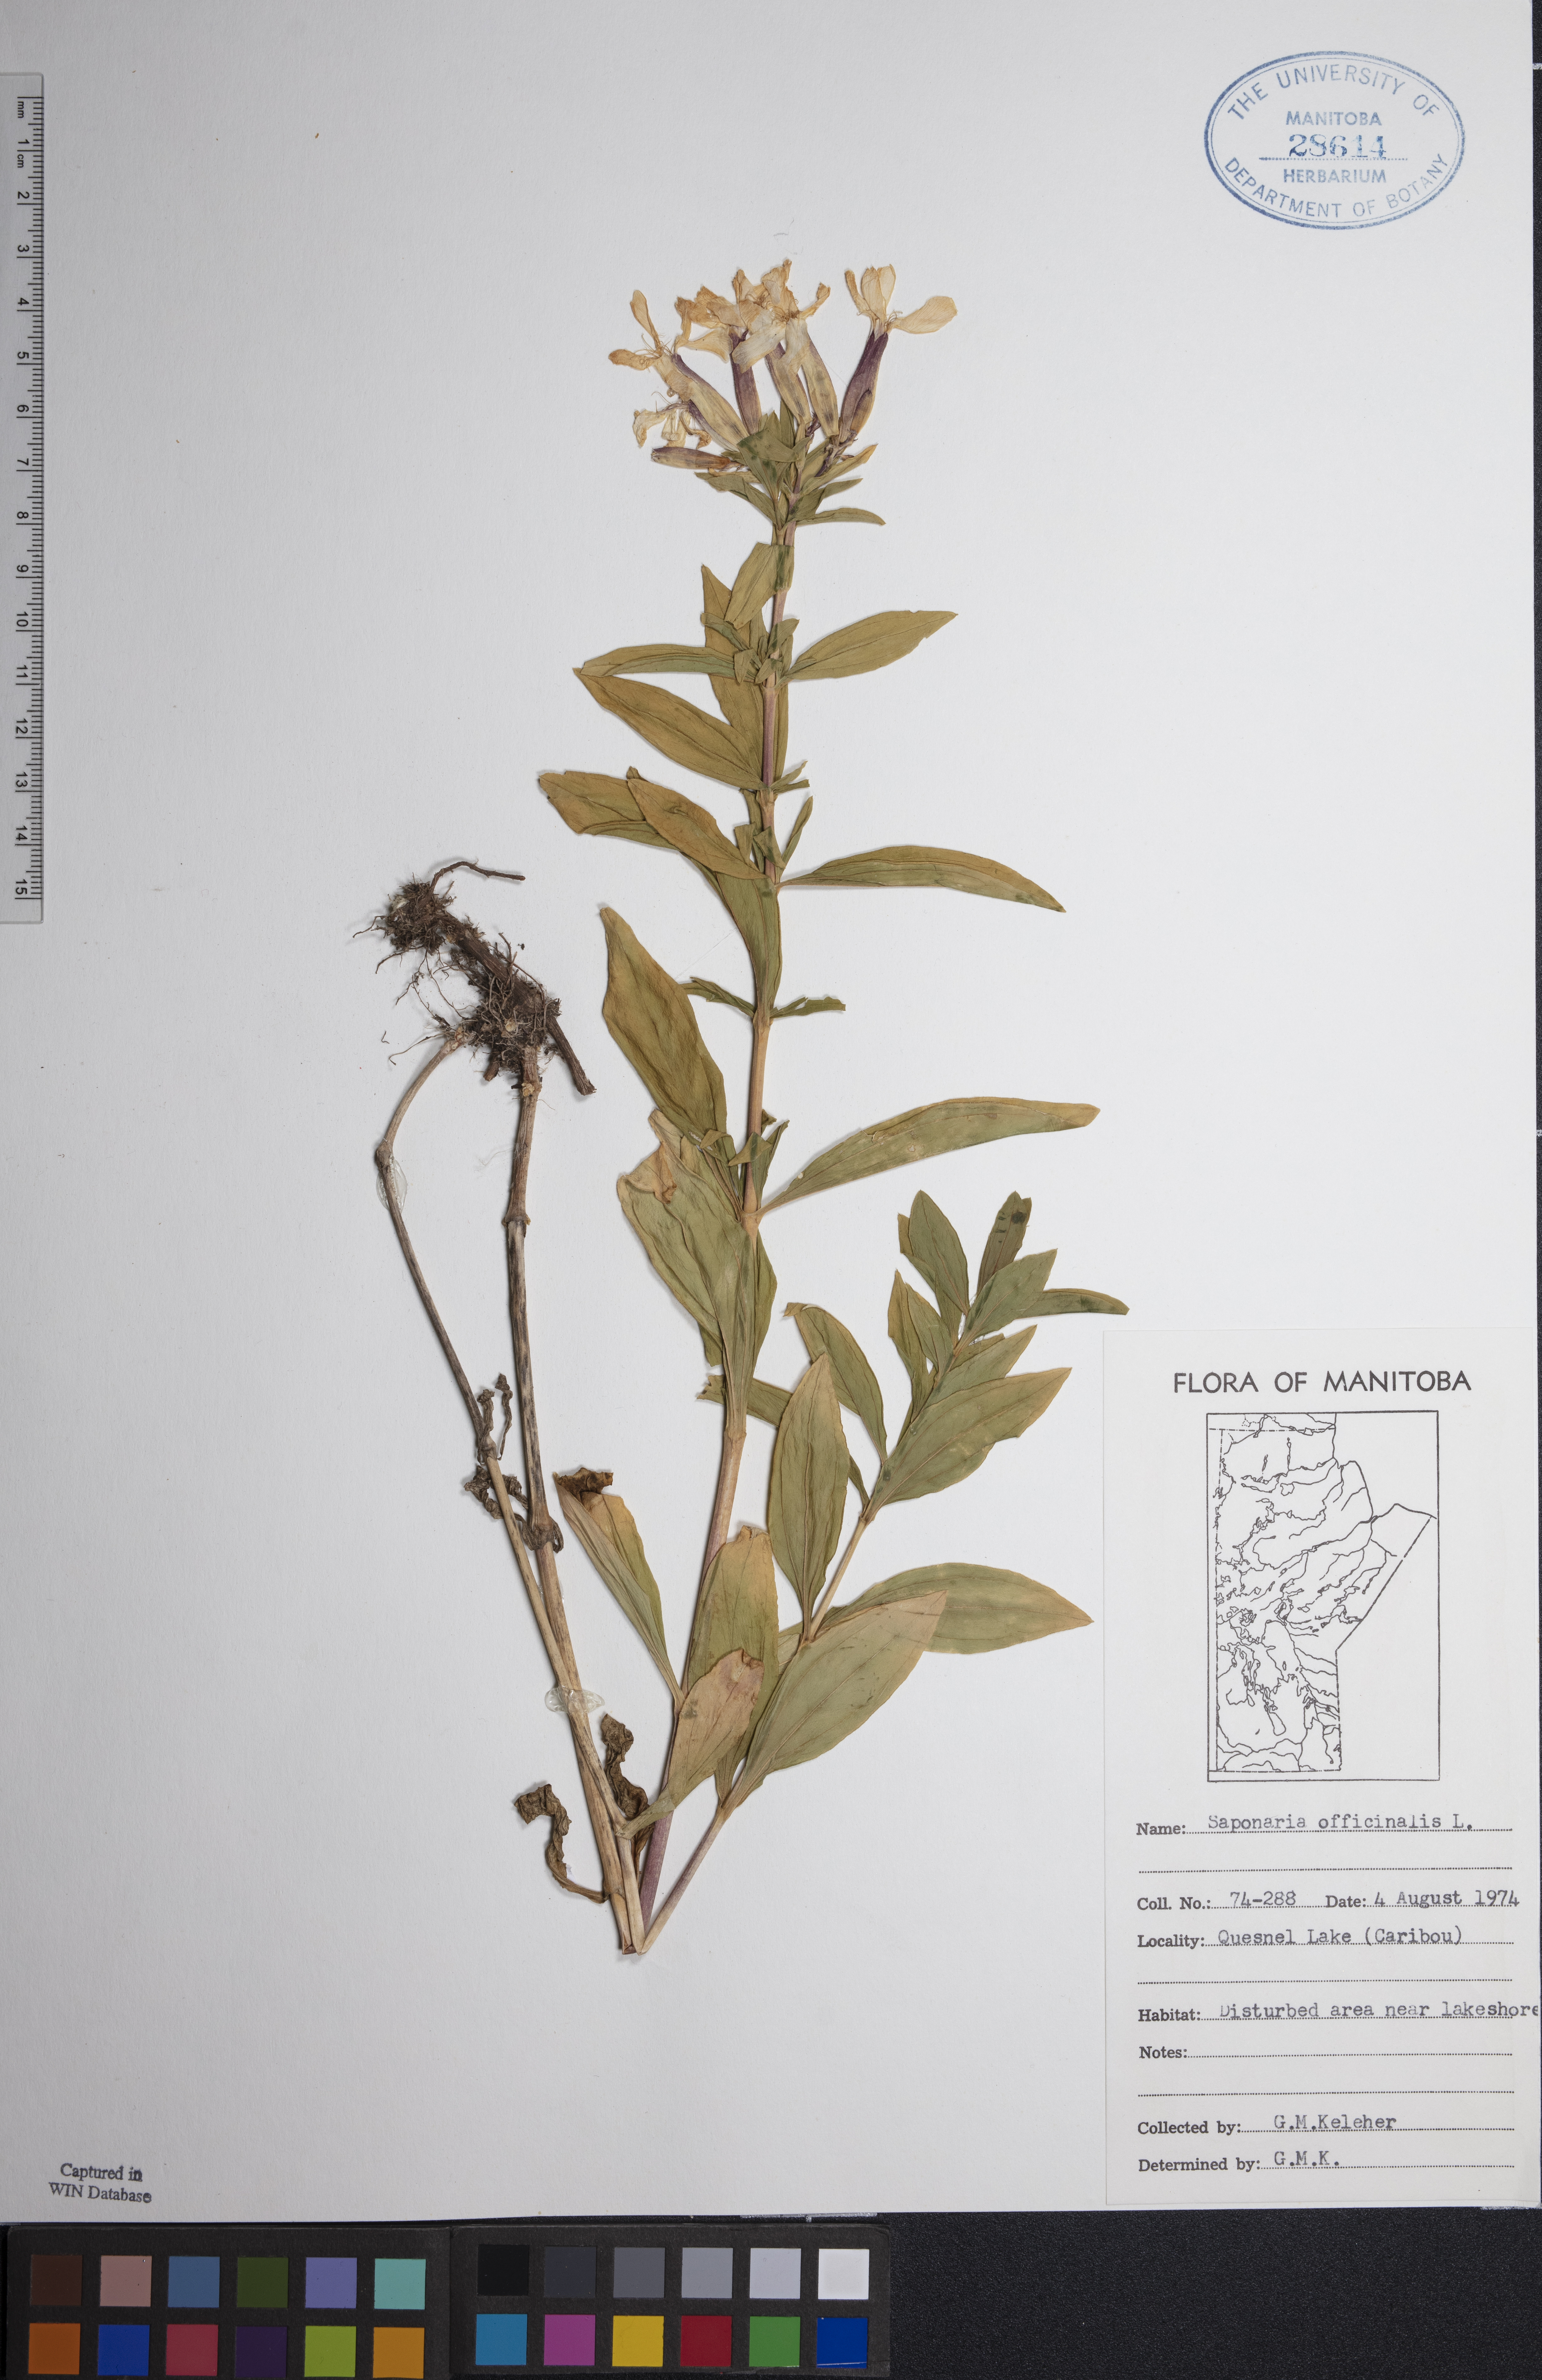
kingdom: Plantae
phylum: Tracheophyta
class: Magnoliopsida
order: Caryophyllales
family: Caryophyllaceae
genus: Saponaria
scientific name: Saponaria officinalis
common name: Soapwort
